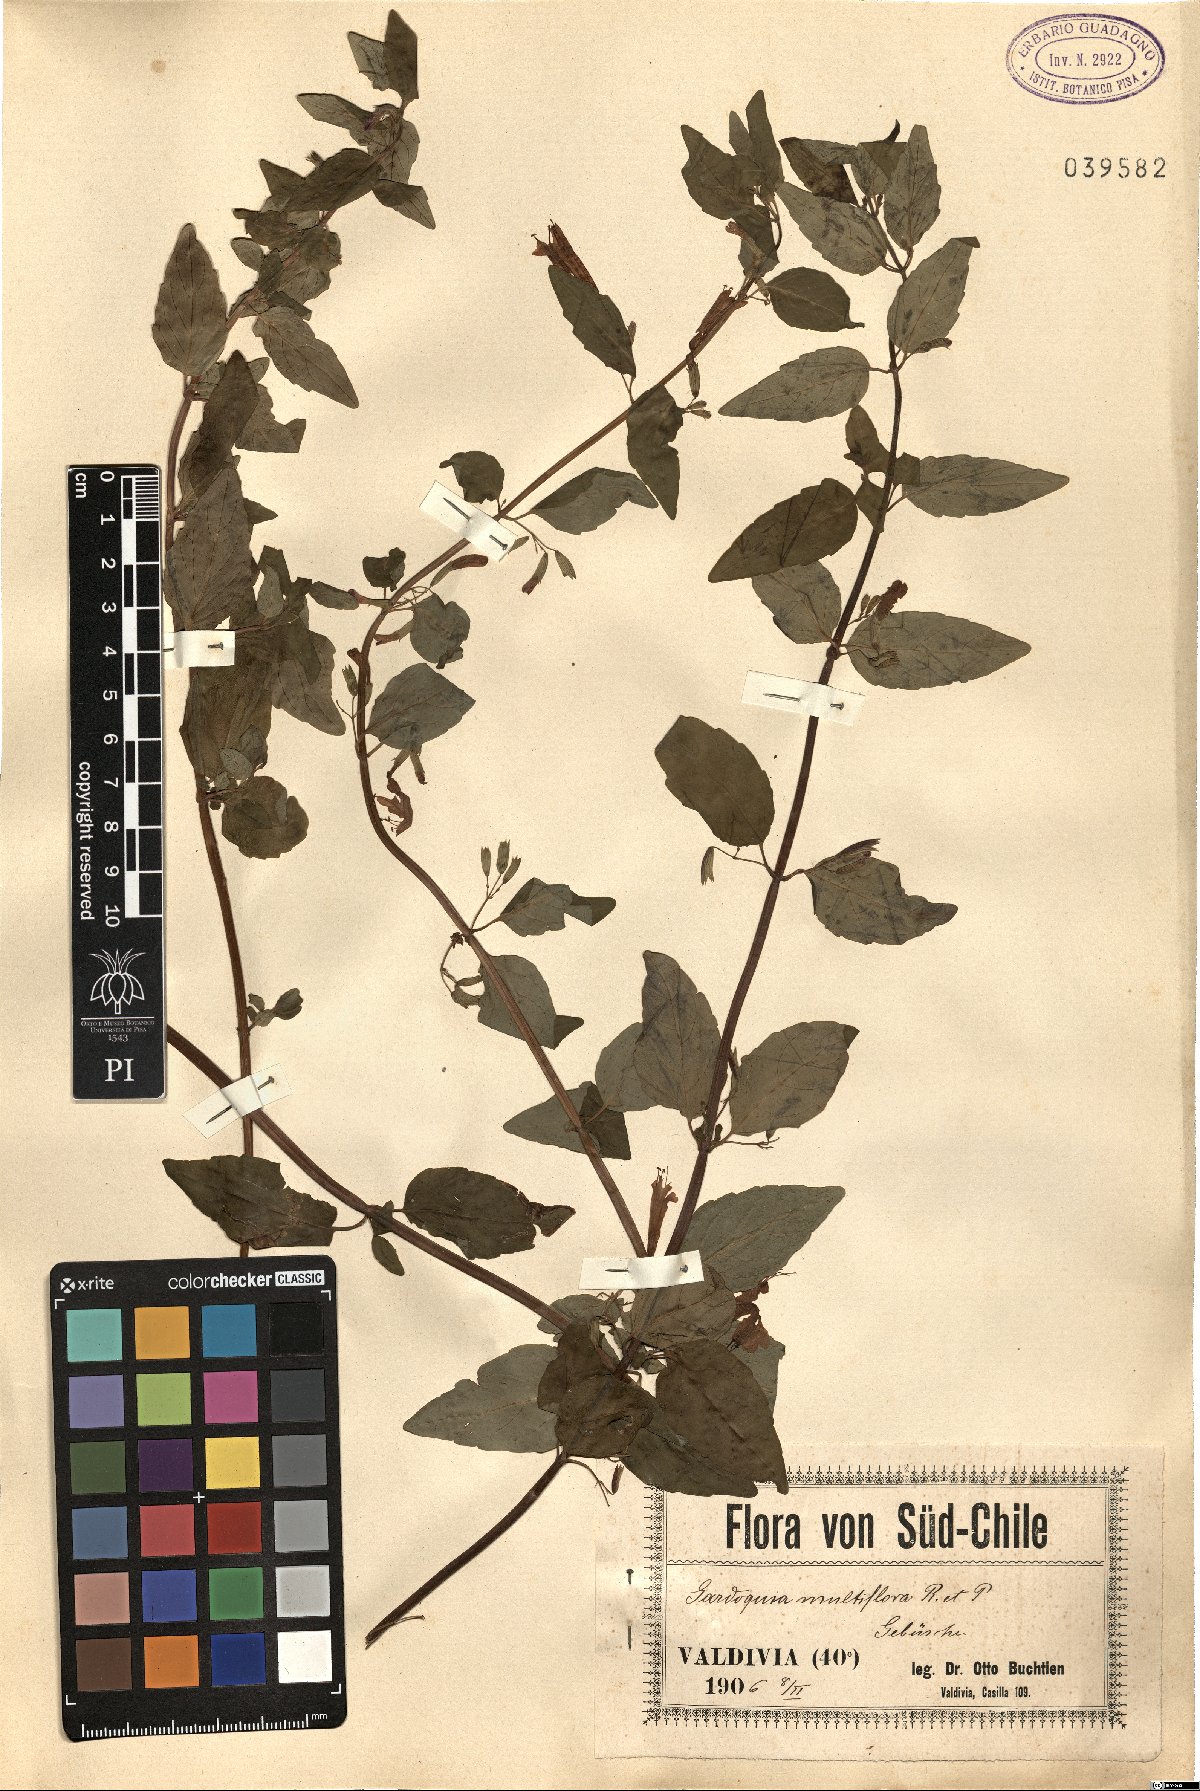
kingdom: Plantae
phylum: Tracheophyta
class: Magnoliopsida
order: Lamiales
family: Lamiaceae
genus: Clinopodium
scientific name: Clinopodium multiflorum
